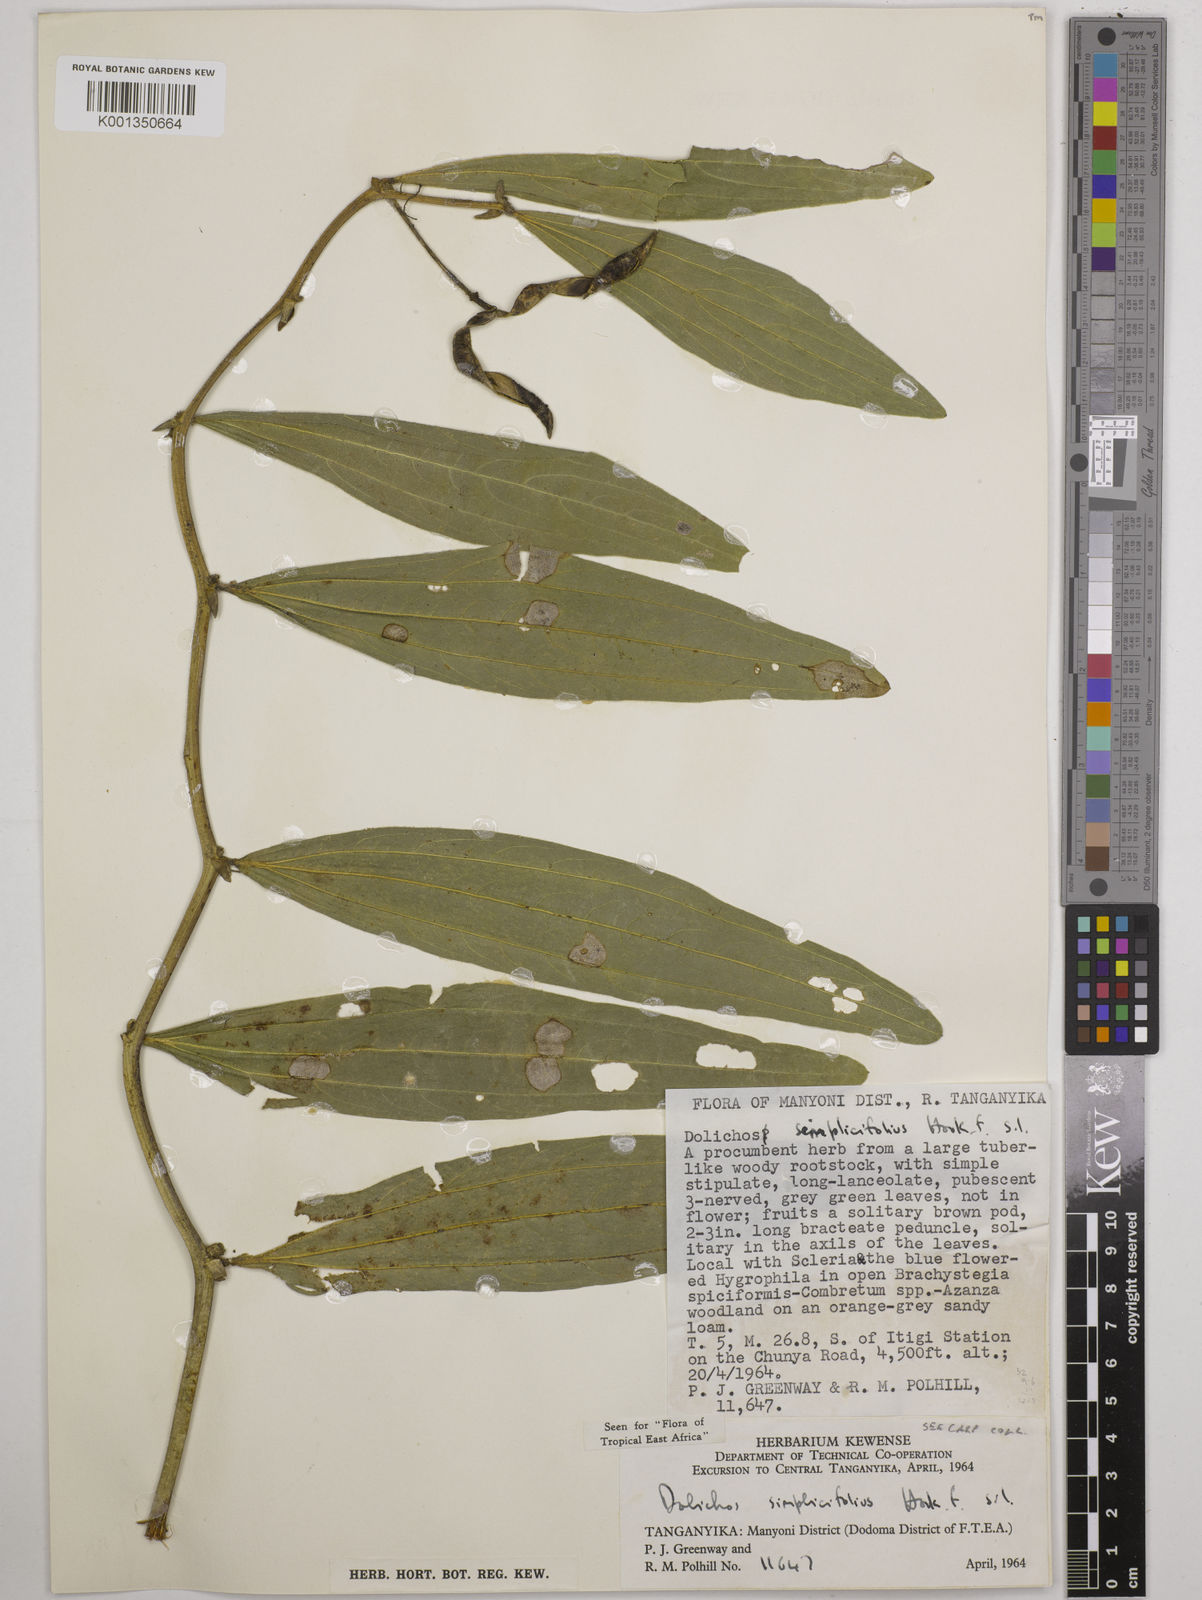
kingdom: Plantae
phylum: Tracheophyta
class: Magnoliopsida
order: Fabales
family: Fabaceae
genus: Dolichos
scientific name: Dolichos simplicifolius
